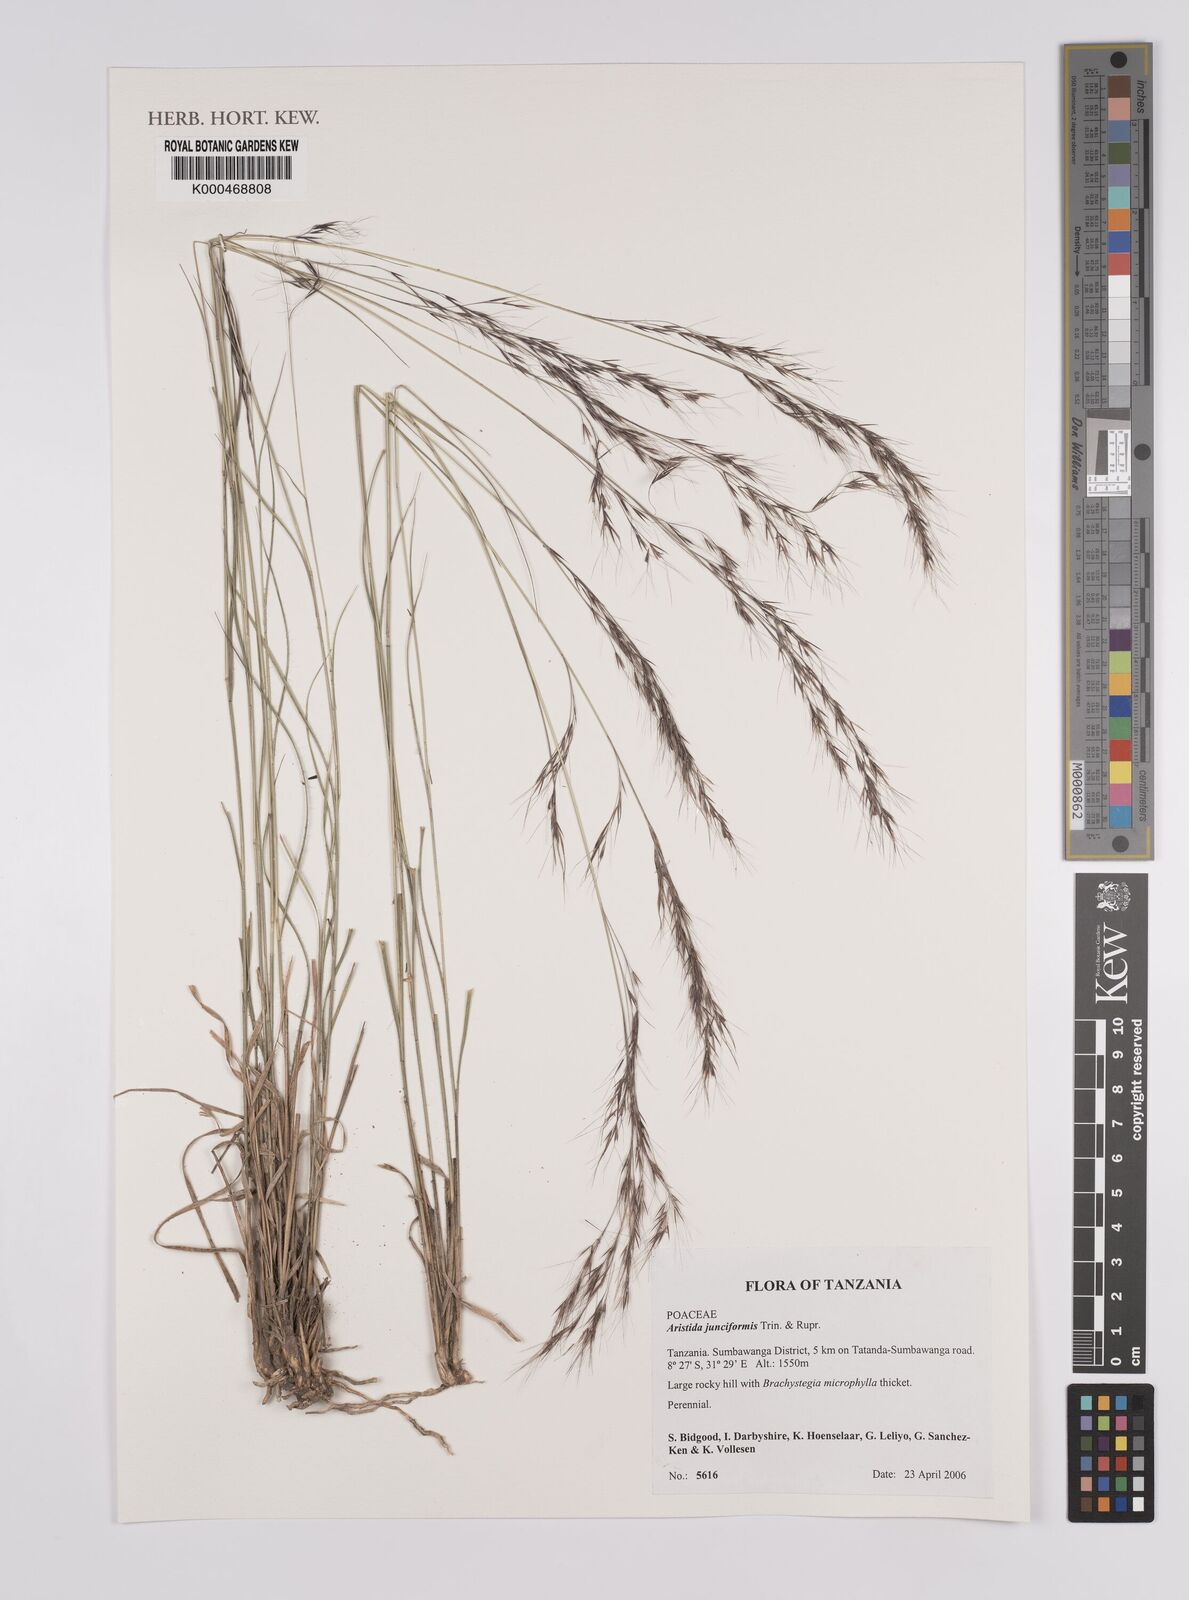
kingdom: Plantae
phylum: Tracheophyta
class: Liliopsida
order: Poales
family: Poaceae
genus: Aristida
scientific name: Aristida junciformis
